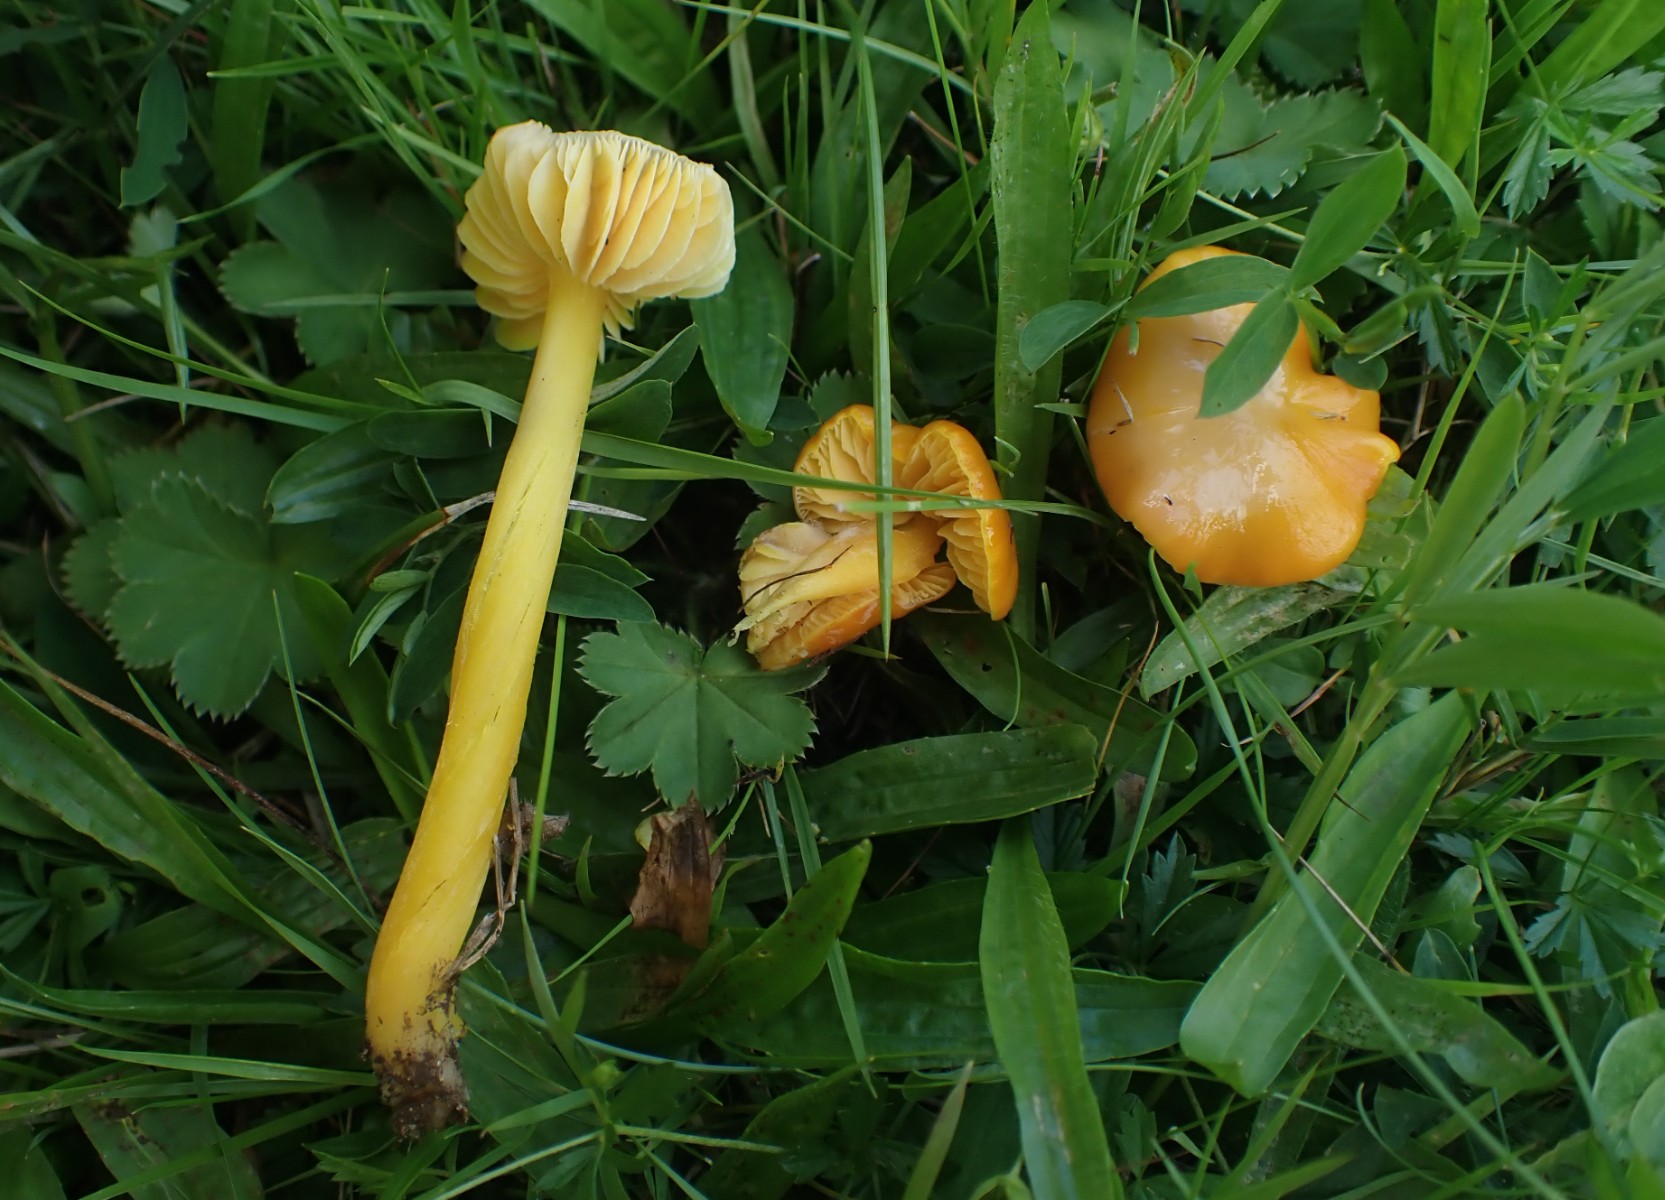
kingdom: Fungi
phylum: Basidiomycota
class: Agaricomycetes
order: Agaricales
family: Hygrophoraceae
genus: Hygrocybe
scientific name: Hygrocybe chlorophana
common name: gul vokshat
